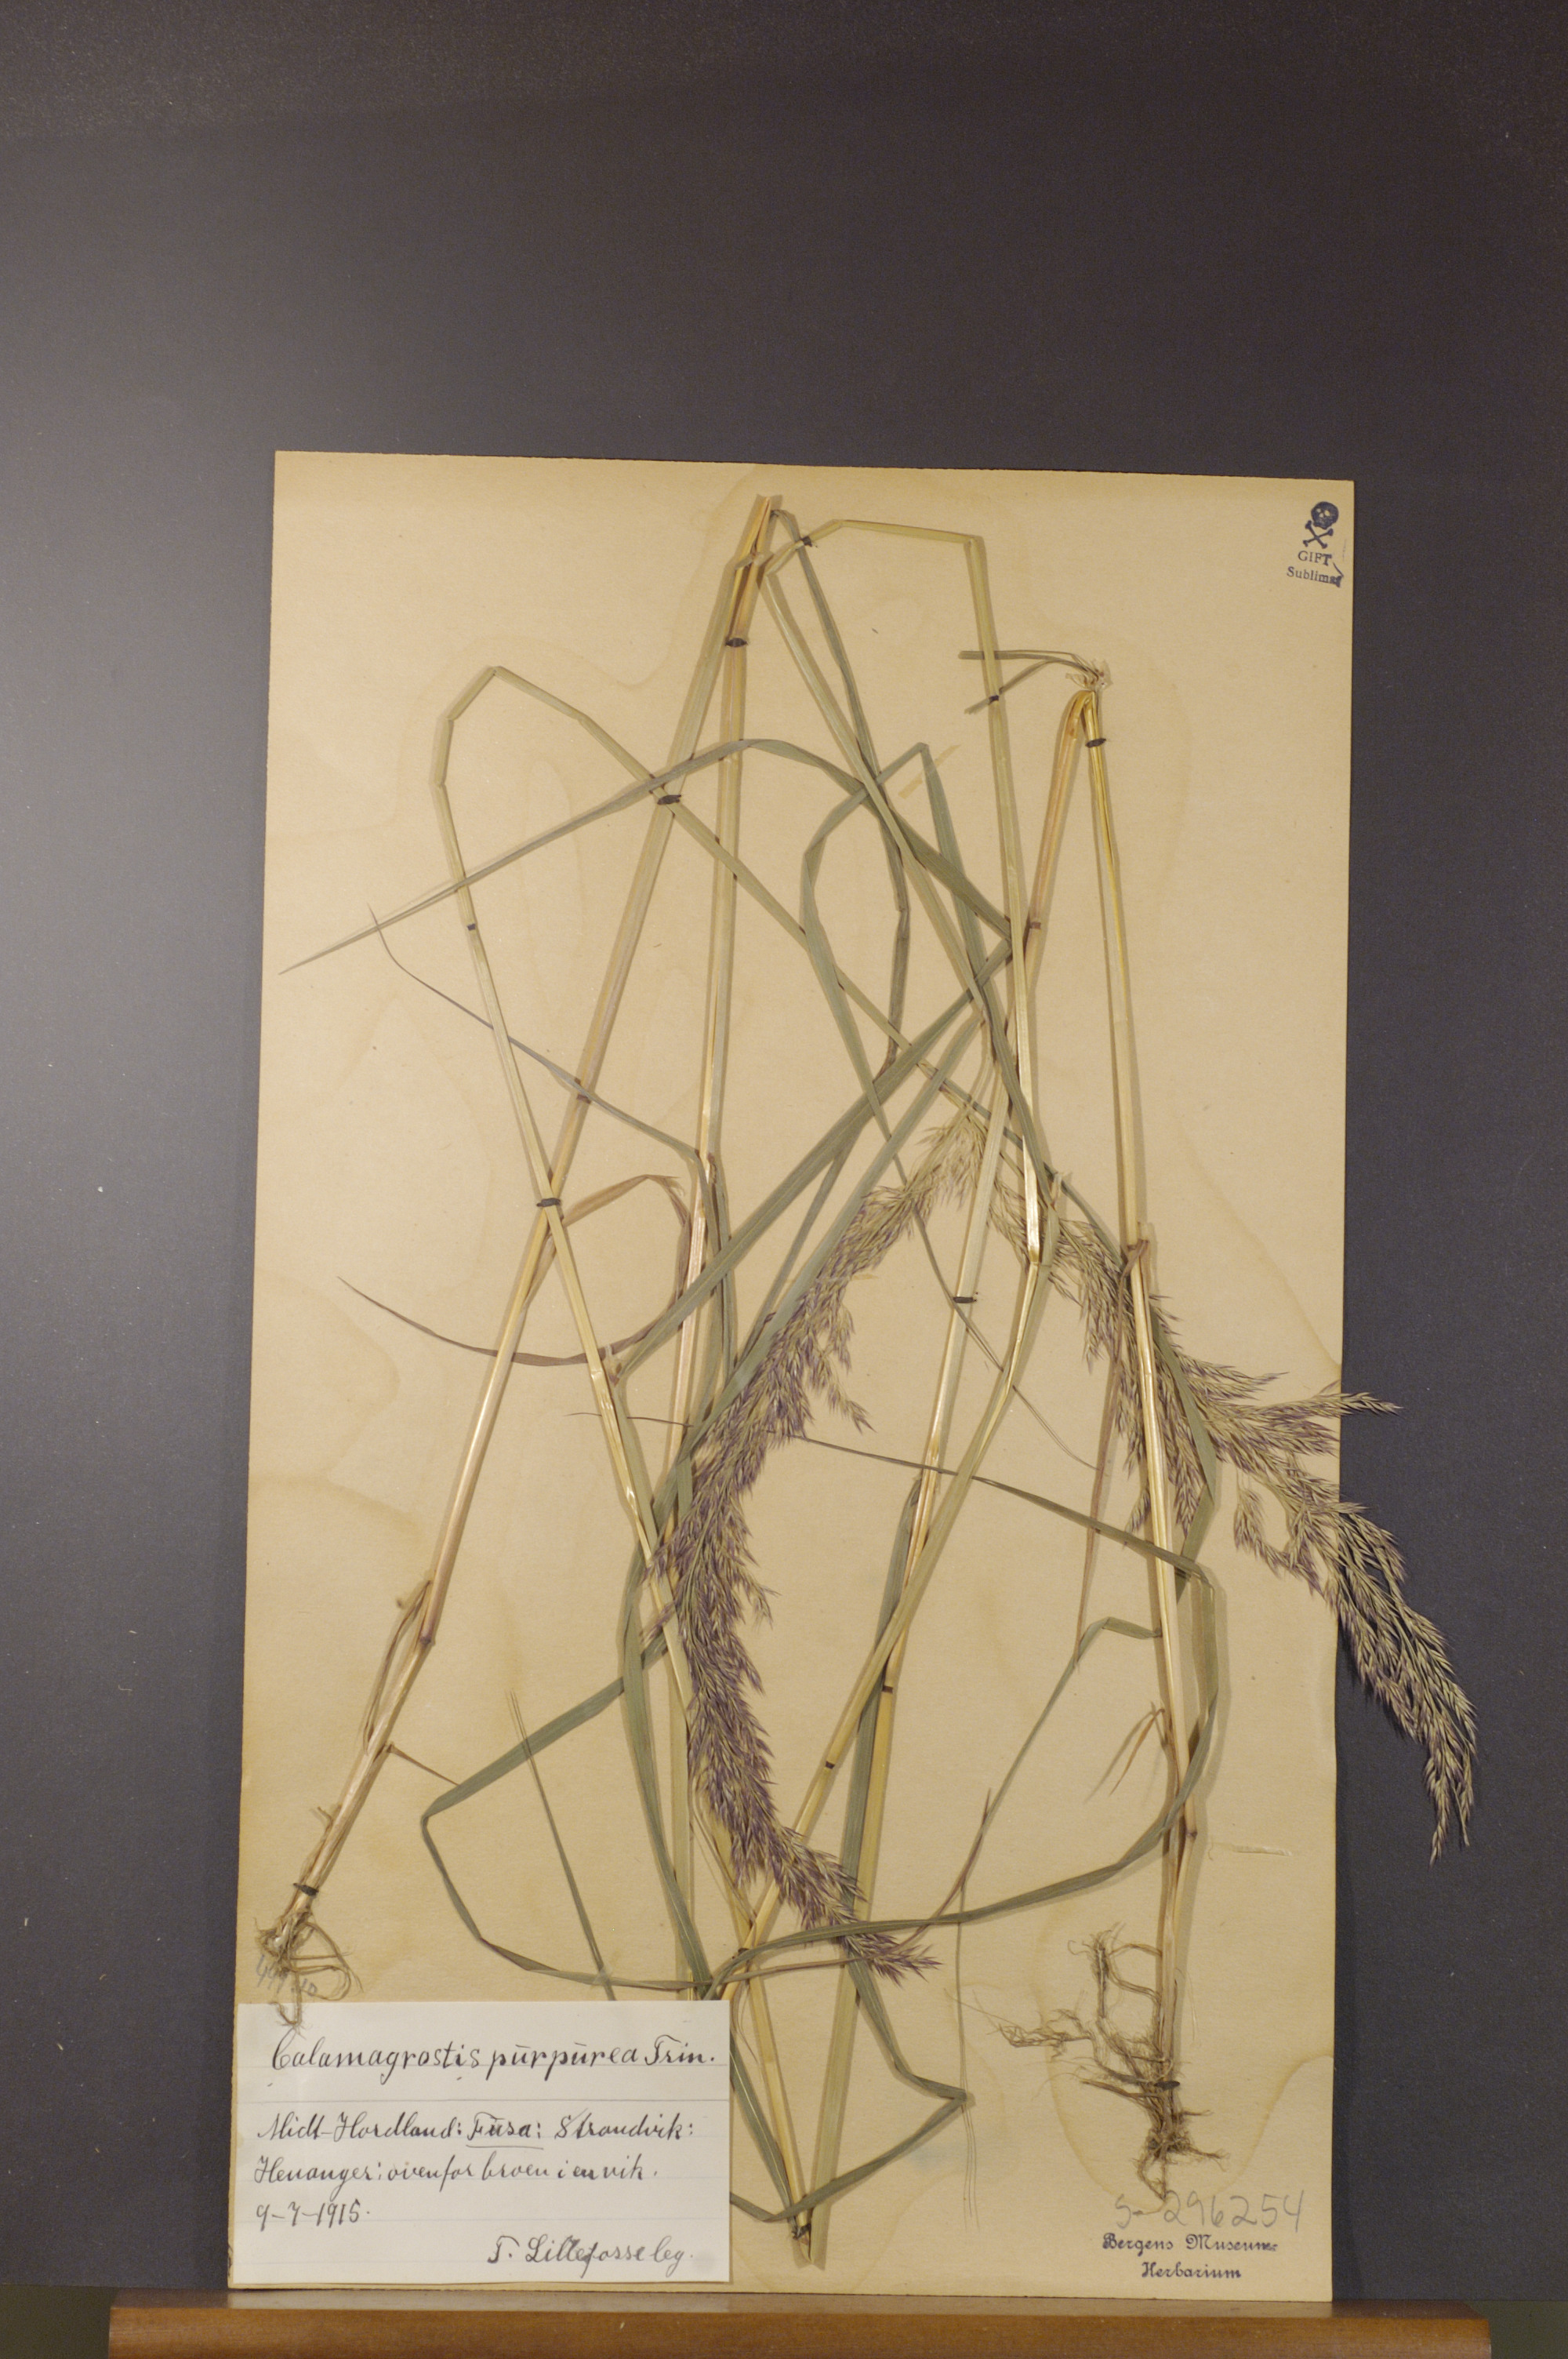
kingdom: Plantae
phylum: Tracheophyta
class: Liliopsida
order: Poales
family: Poaceae
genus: Calamagrostis
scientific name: Calamagrostis purpurea
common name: Scandinavian small-reed
